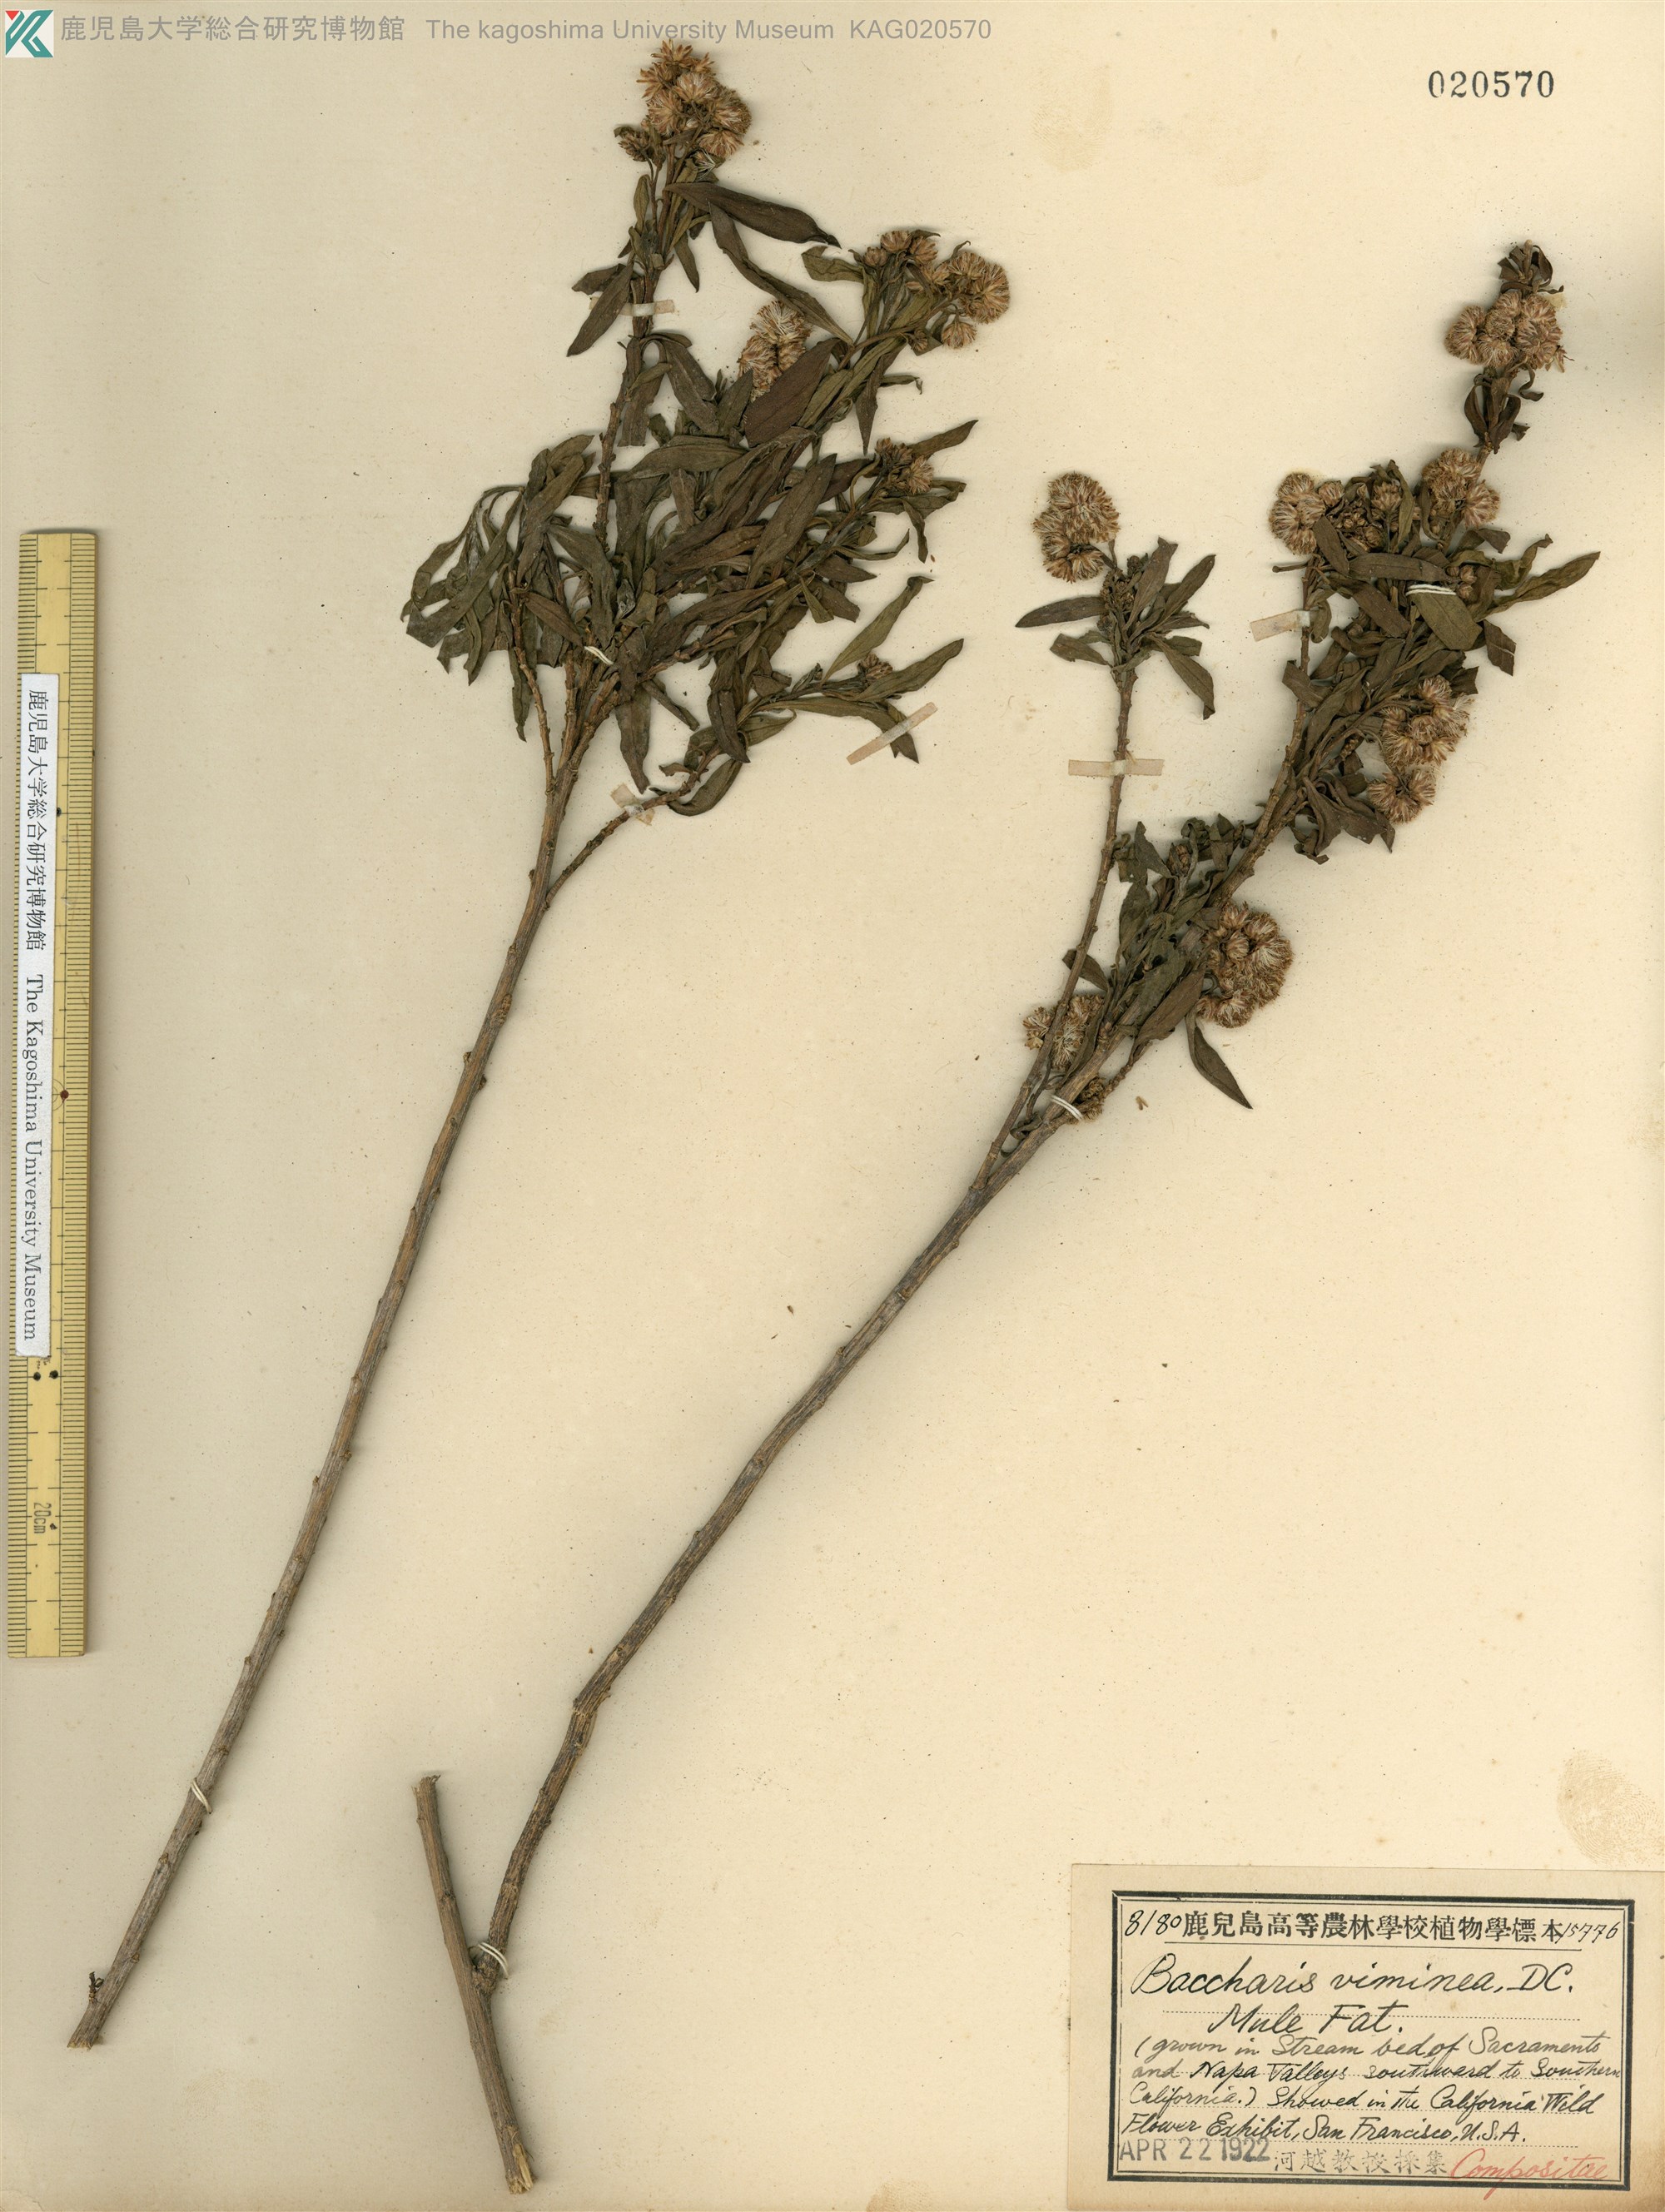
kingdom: Plantae
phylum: Tracheophyta
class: Magnoliopsida
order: Asterales
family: Asteraceae
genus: Baccharis
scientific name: Baccharis salicifolia
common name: Sticky baccharis
